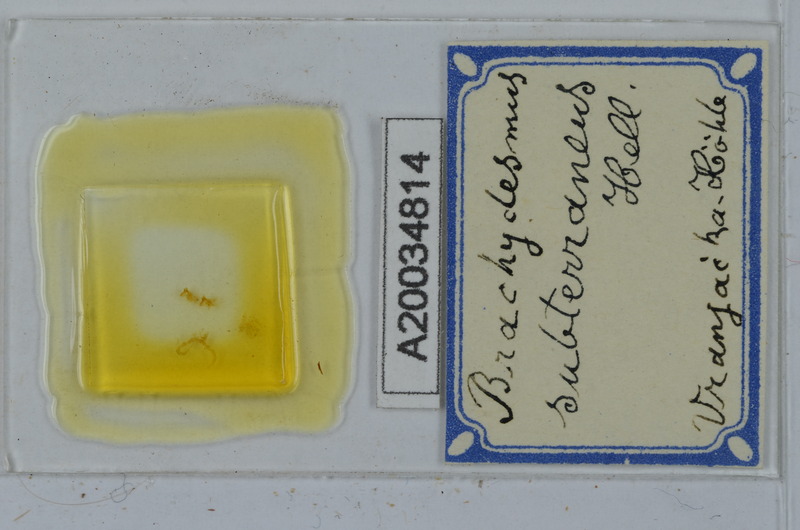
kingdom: Animalia
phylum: Arthropoda
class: Diplopoda
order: Polydesmida
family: Polydesmidae
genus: Brachydesmus
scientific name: Brachydesmus subterraneus
